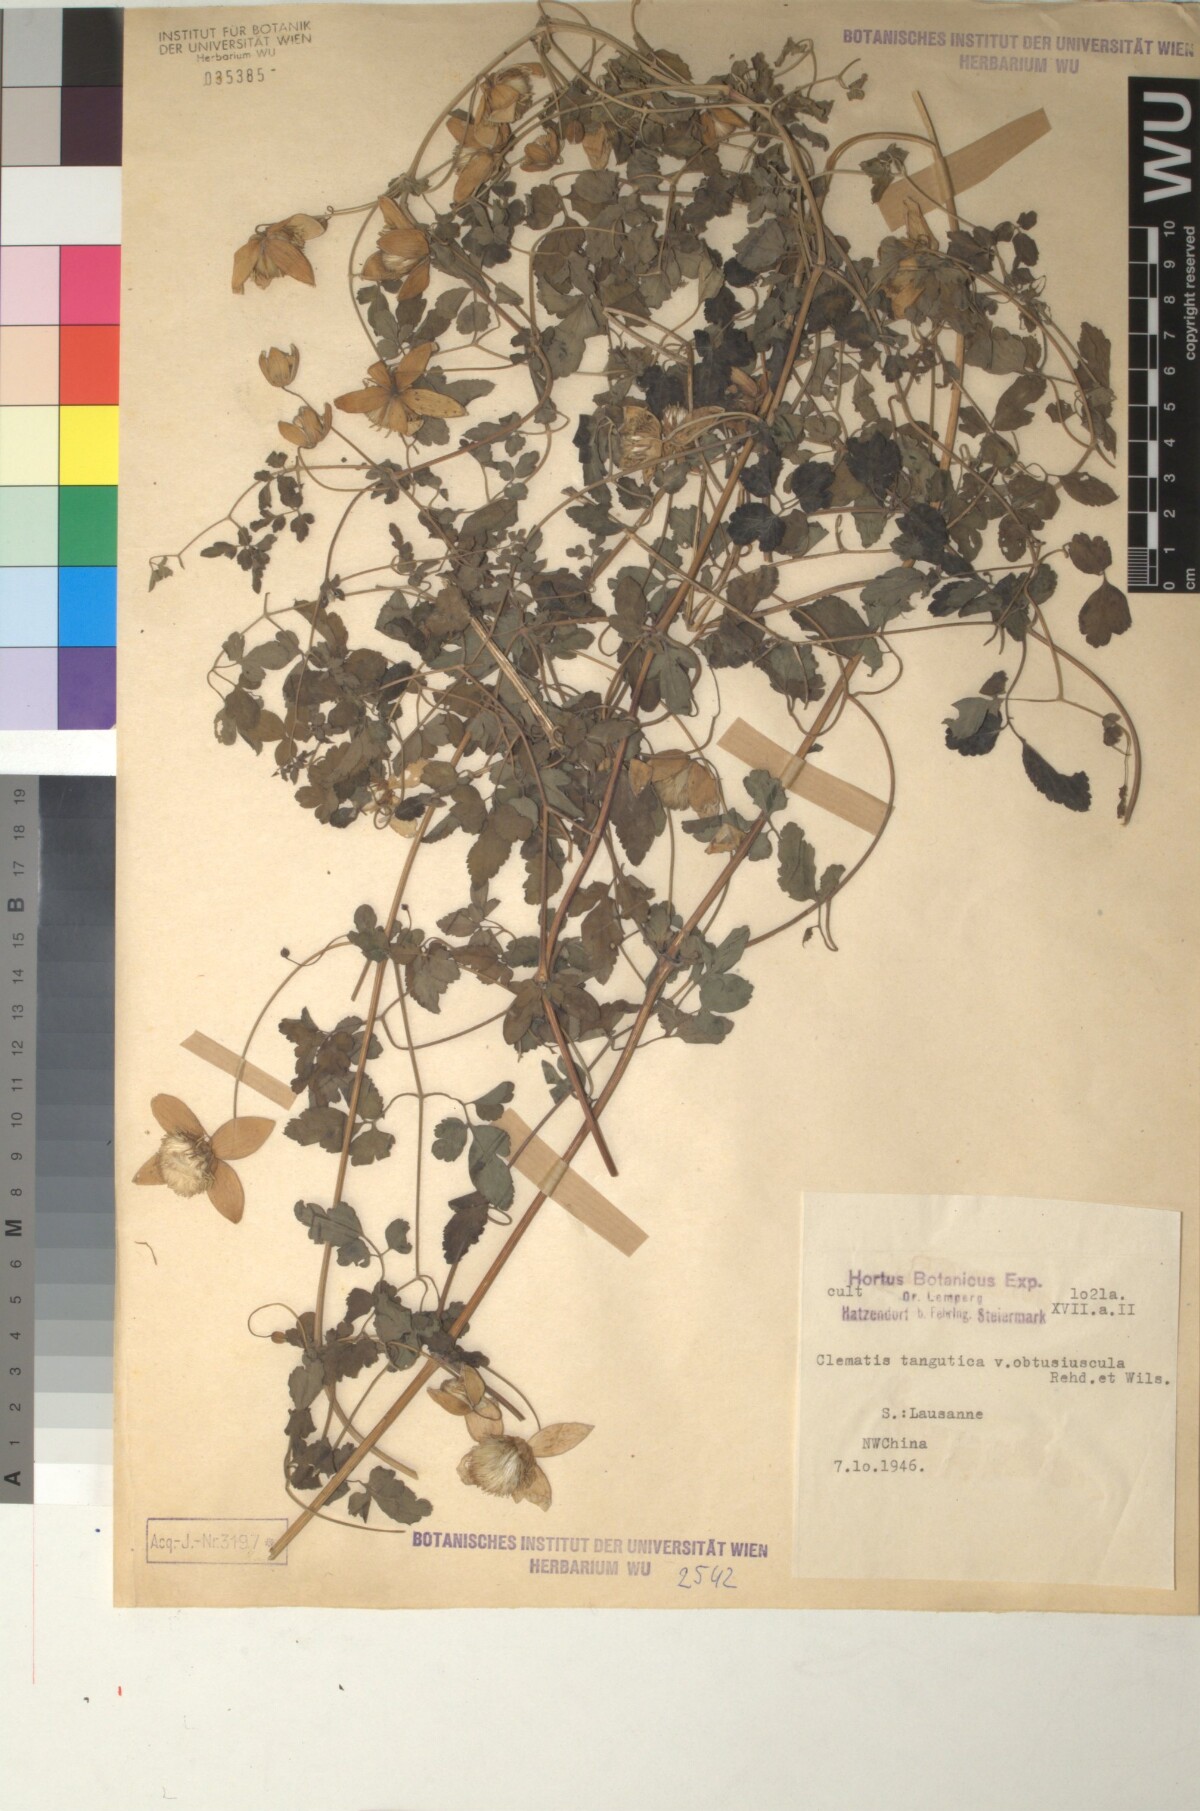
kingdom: Plantae
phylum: Tracheophyta
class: Magnoliopsida
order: Ranunculales
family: Ranunculaceae
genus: Clematis
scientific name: Clematis tangutica
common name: Orange-peel clematis
